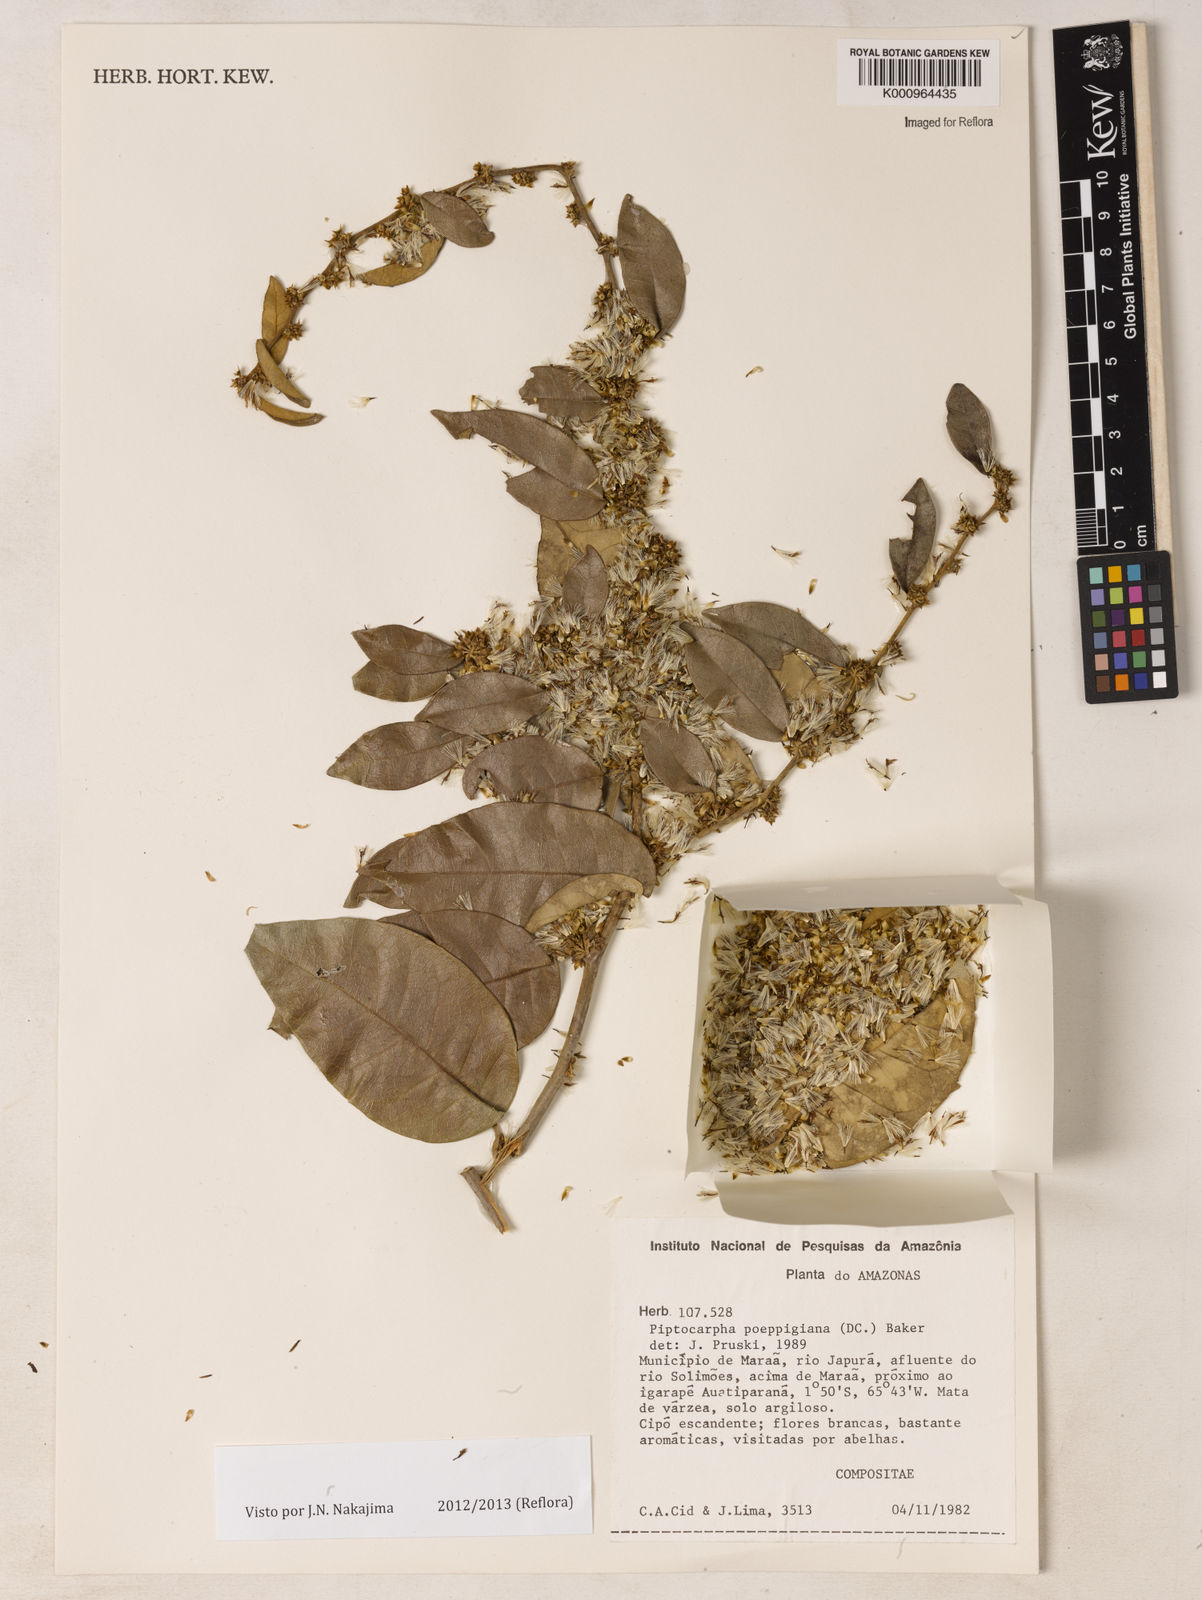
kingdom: Plantae
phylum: Tracheophyta
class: Magnoliopsida
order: Asterales
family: Asteraceae
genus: Piptocarpha
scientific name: Piptocarpha poeppigiana
